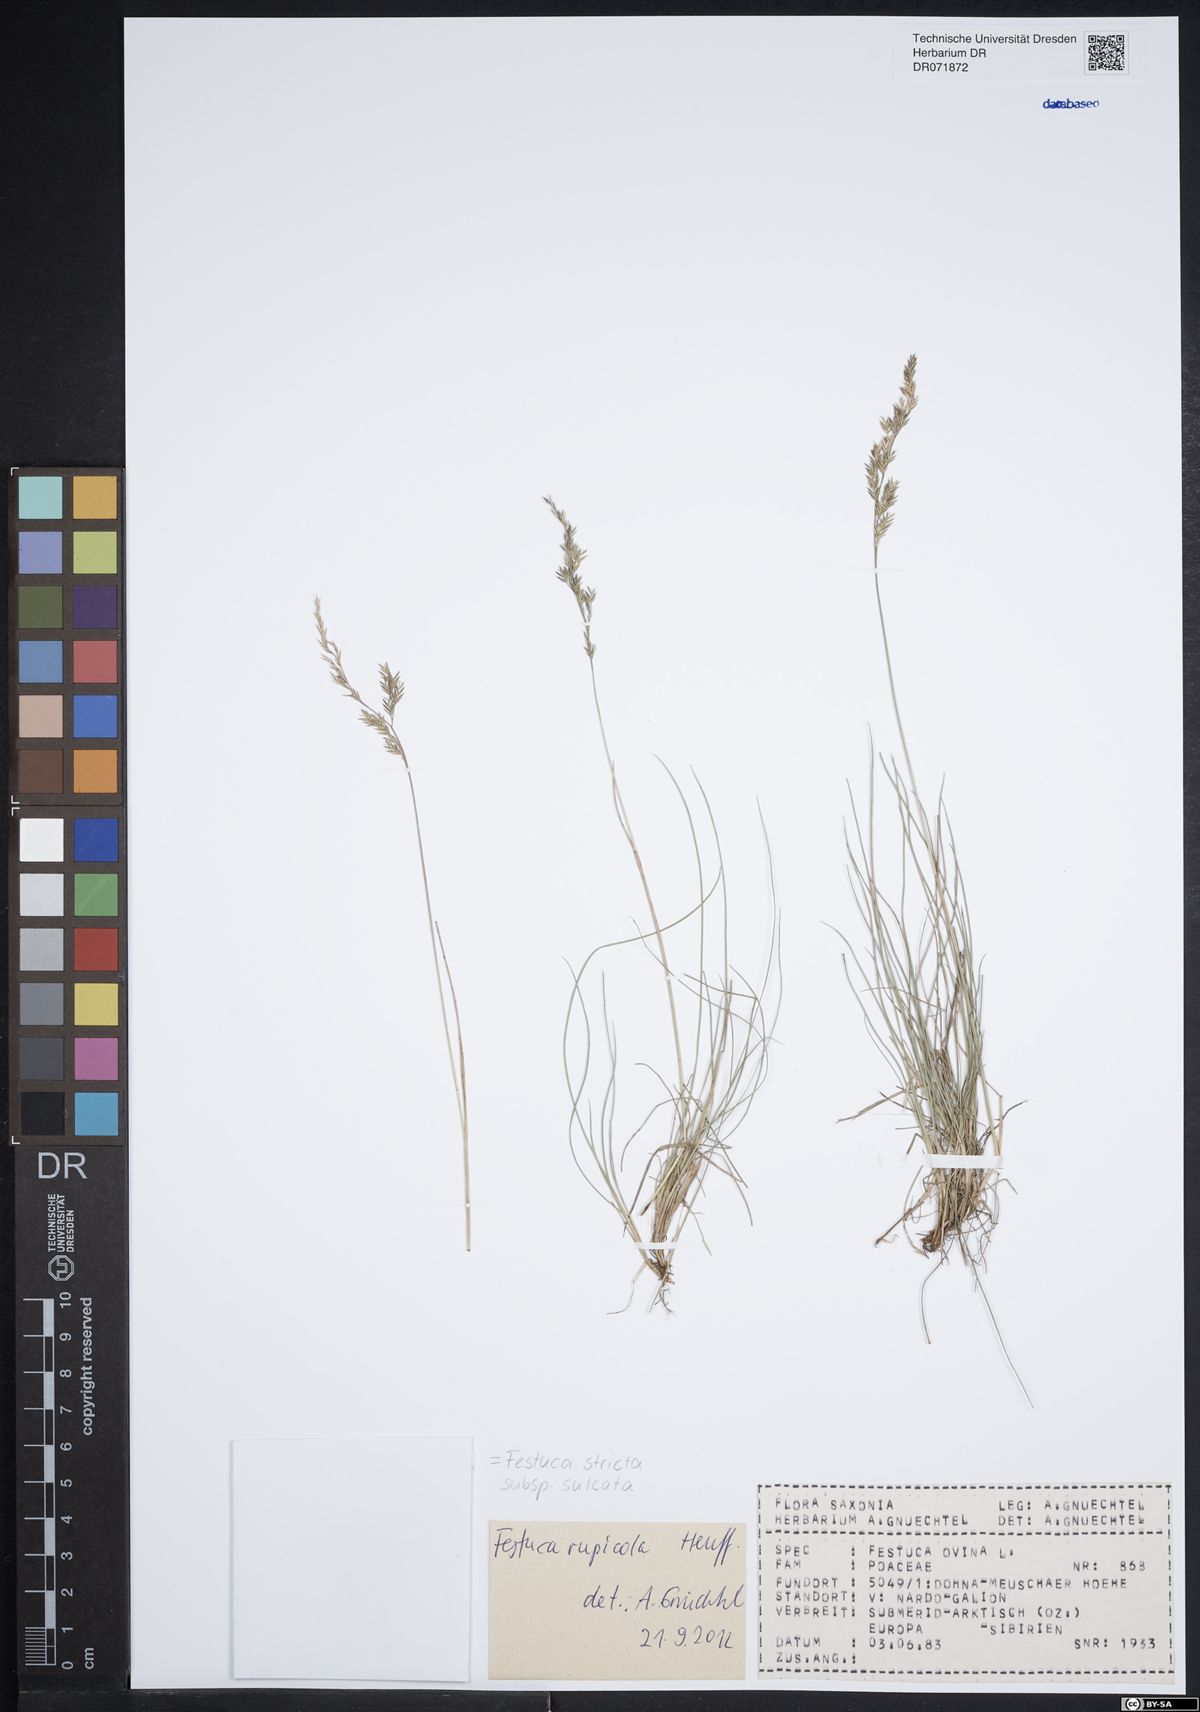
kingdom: Plantae
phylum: Tracheophyta
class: Liliopsida
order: Poales
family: Poaceae
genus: Festuca
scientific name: Festuca rupicola
